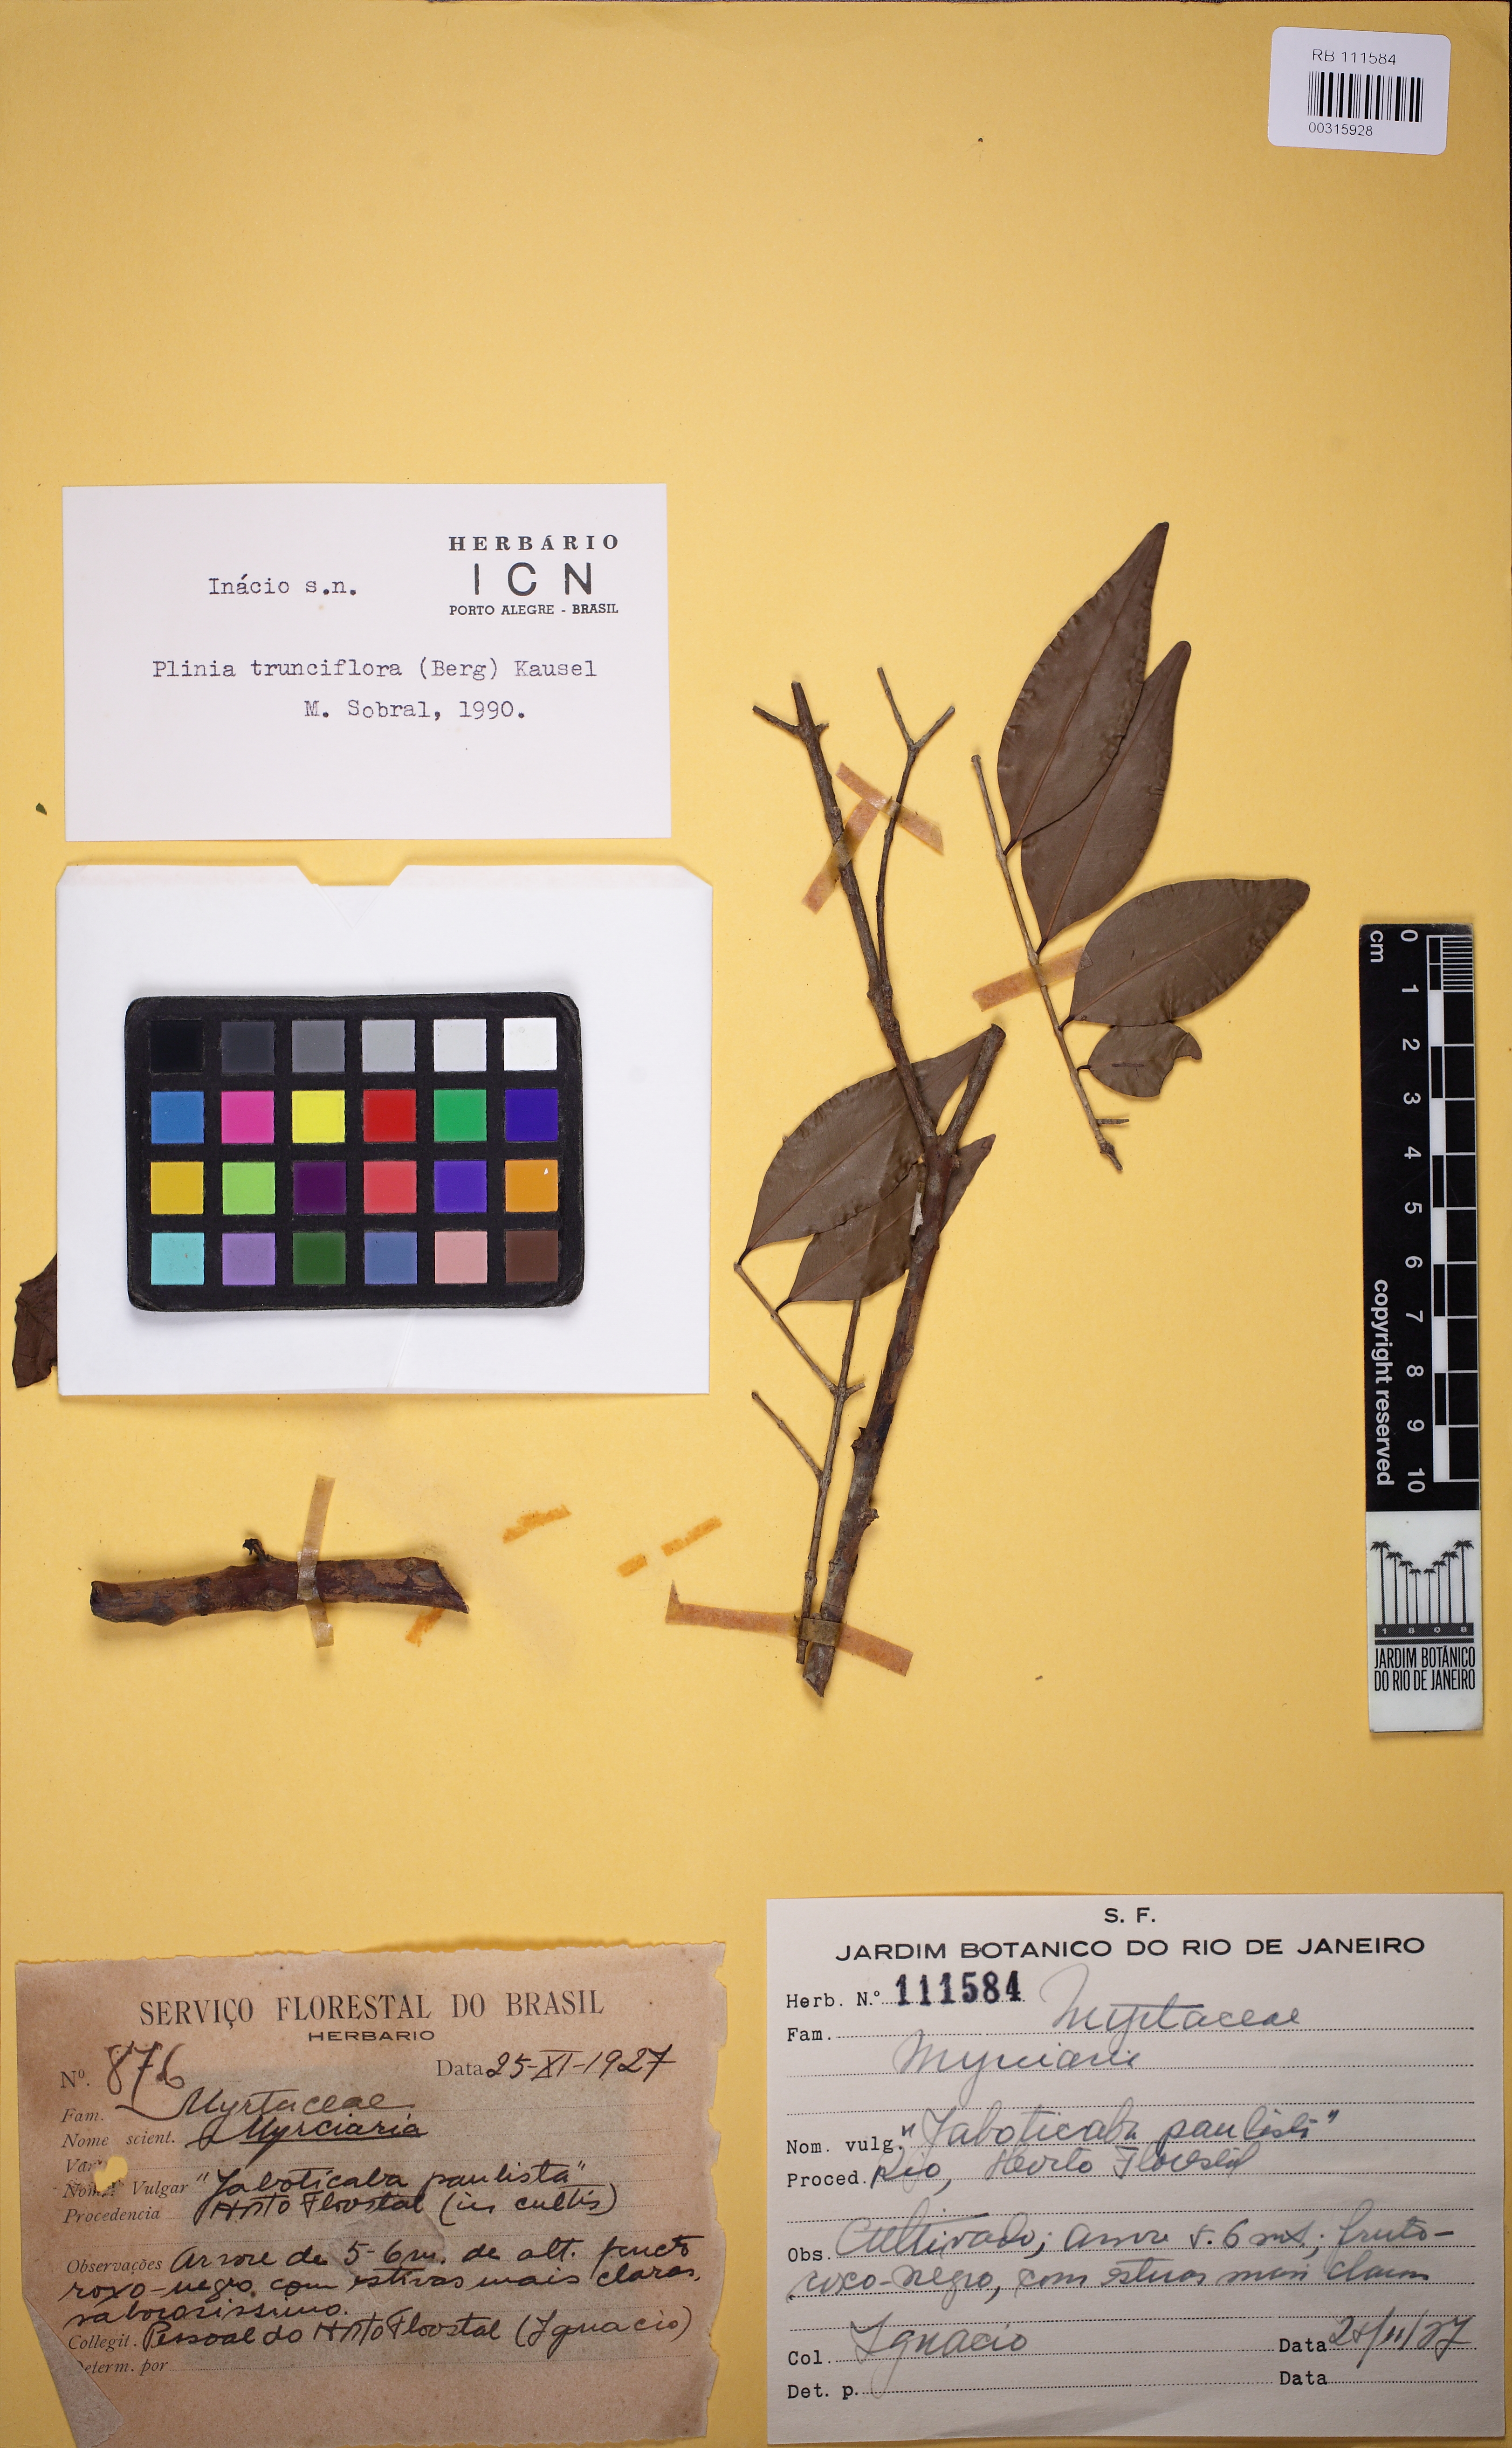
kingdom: Plantae
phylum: Tracheophyta
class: Magnoliopsida
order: Myrtales
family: Myrtaceae
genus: Plinia
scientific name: Plinia peruviana
